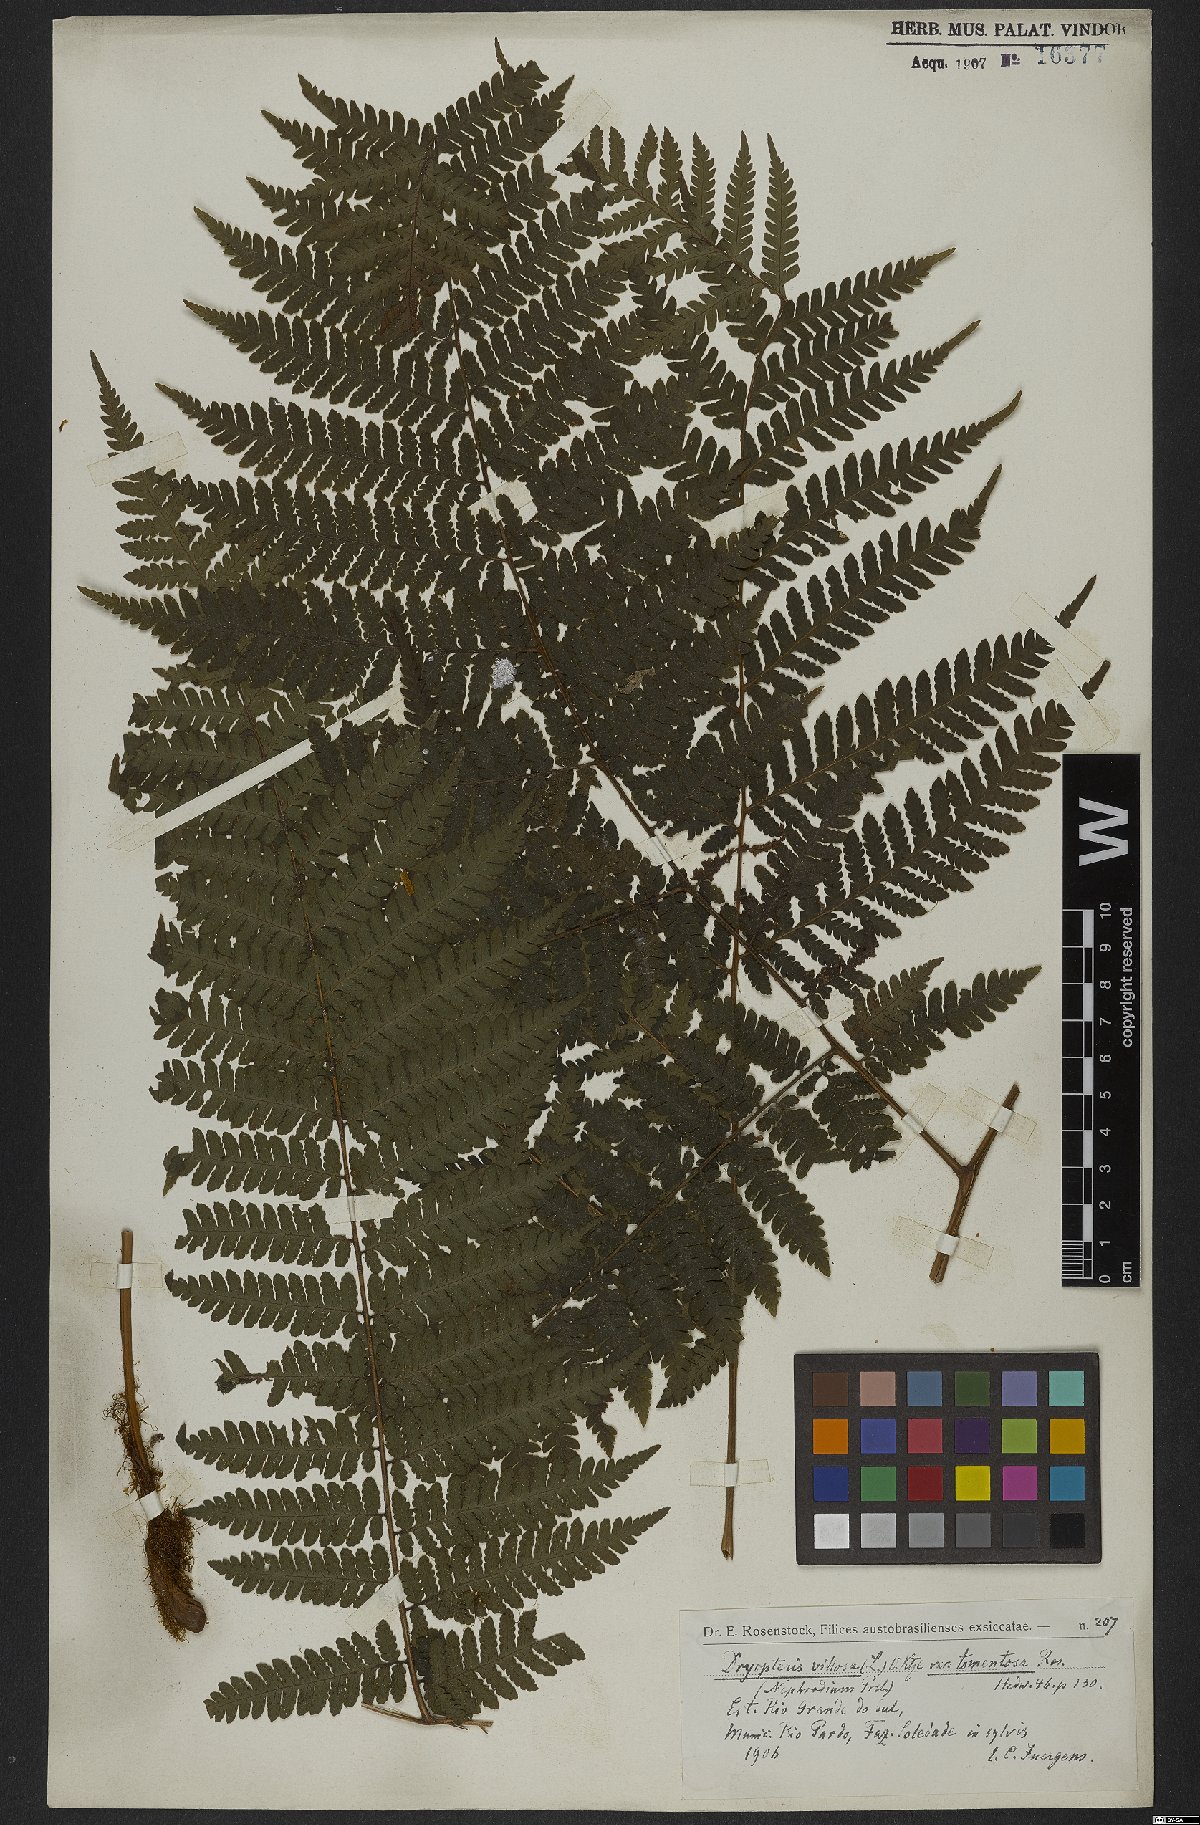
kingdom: Plantae
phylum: Tracheophyta
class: Polypodiopsida
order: Polypodiales
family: Dryopteridaceae
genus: Megalastrum
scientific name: Megalastrum villosum
